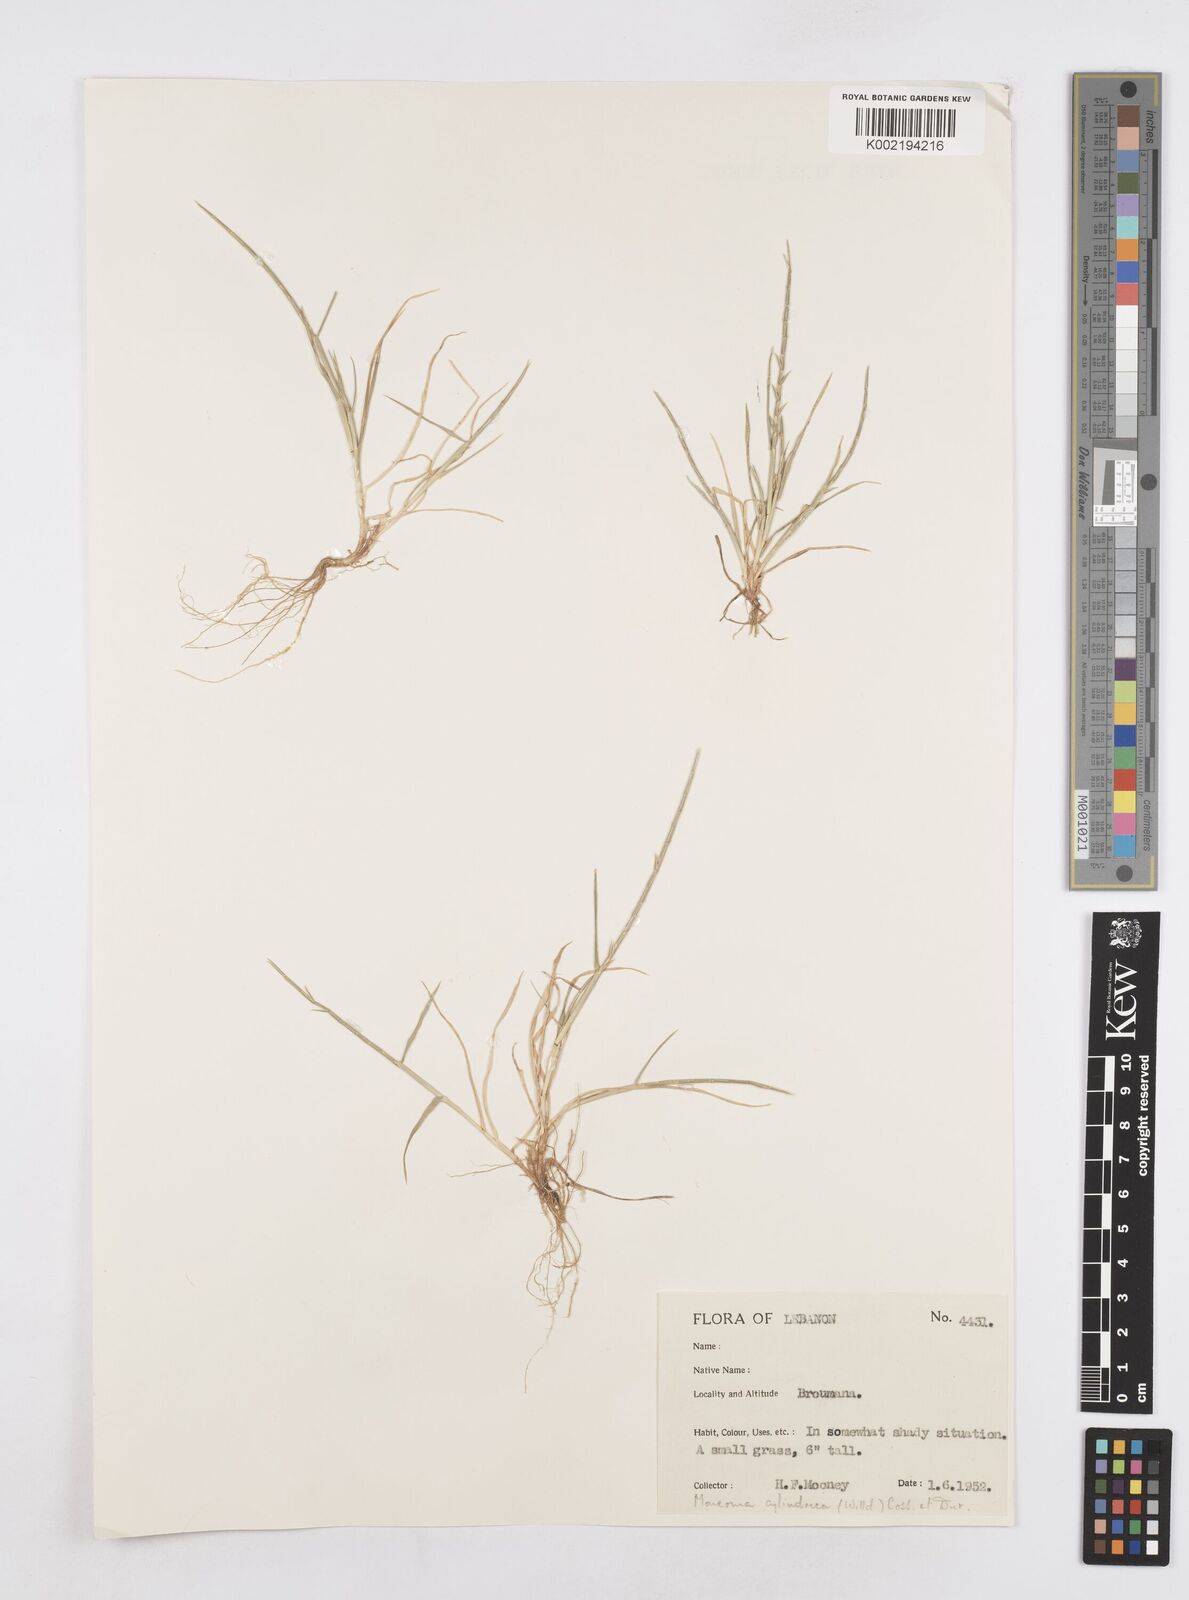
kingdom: Plantae
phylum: Tracheophyta
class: Liliopsida
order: Poales
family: Poaceae
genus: Parapholis
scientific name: Parapholis cylindrica
